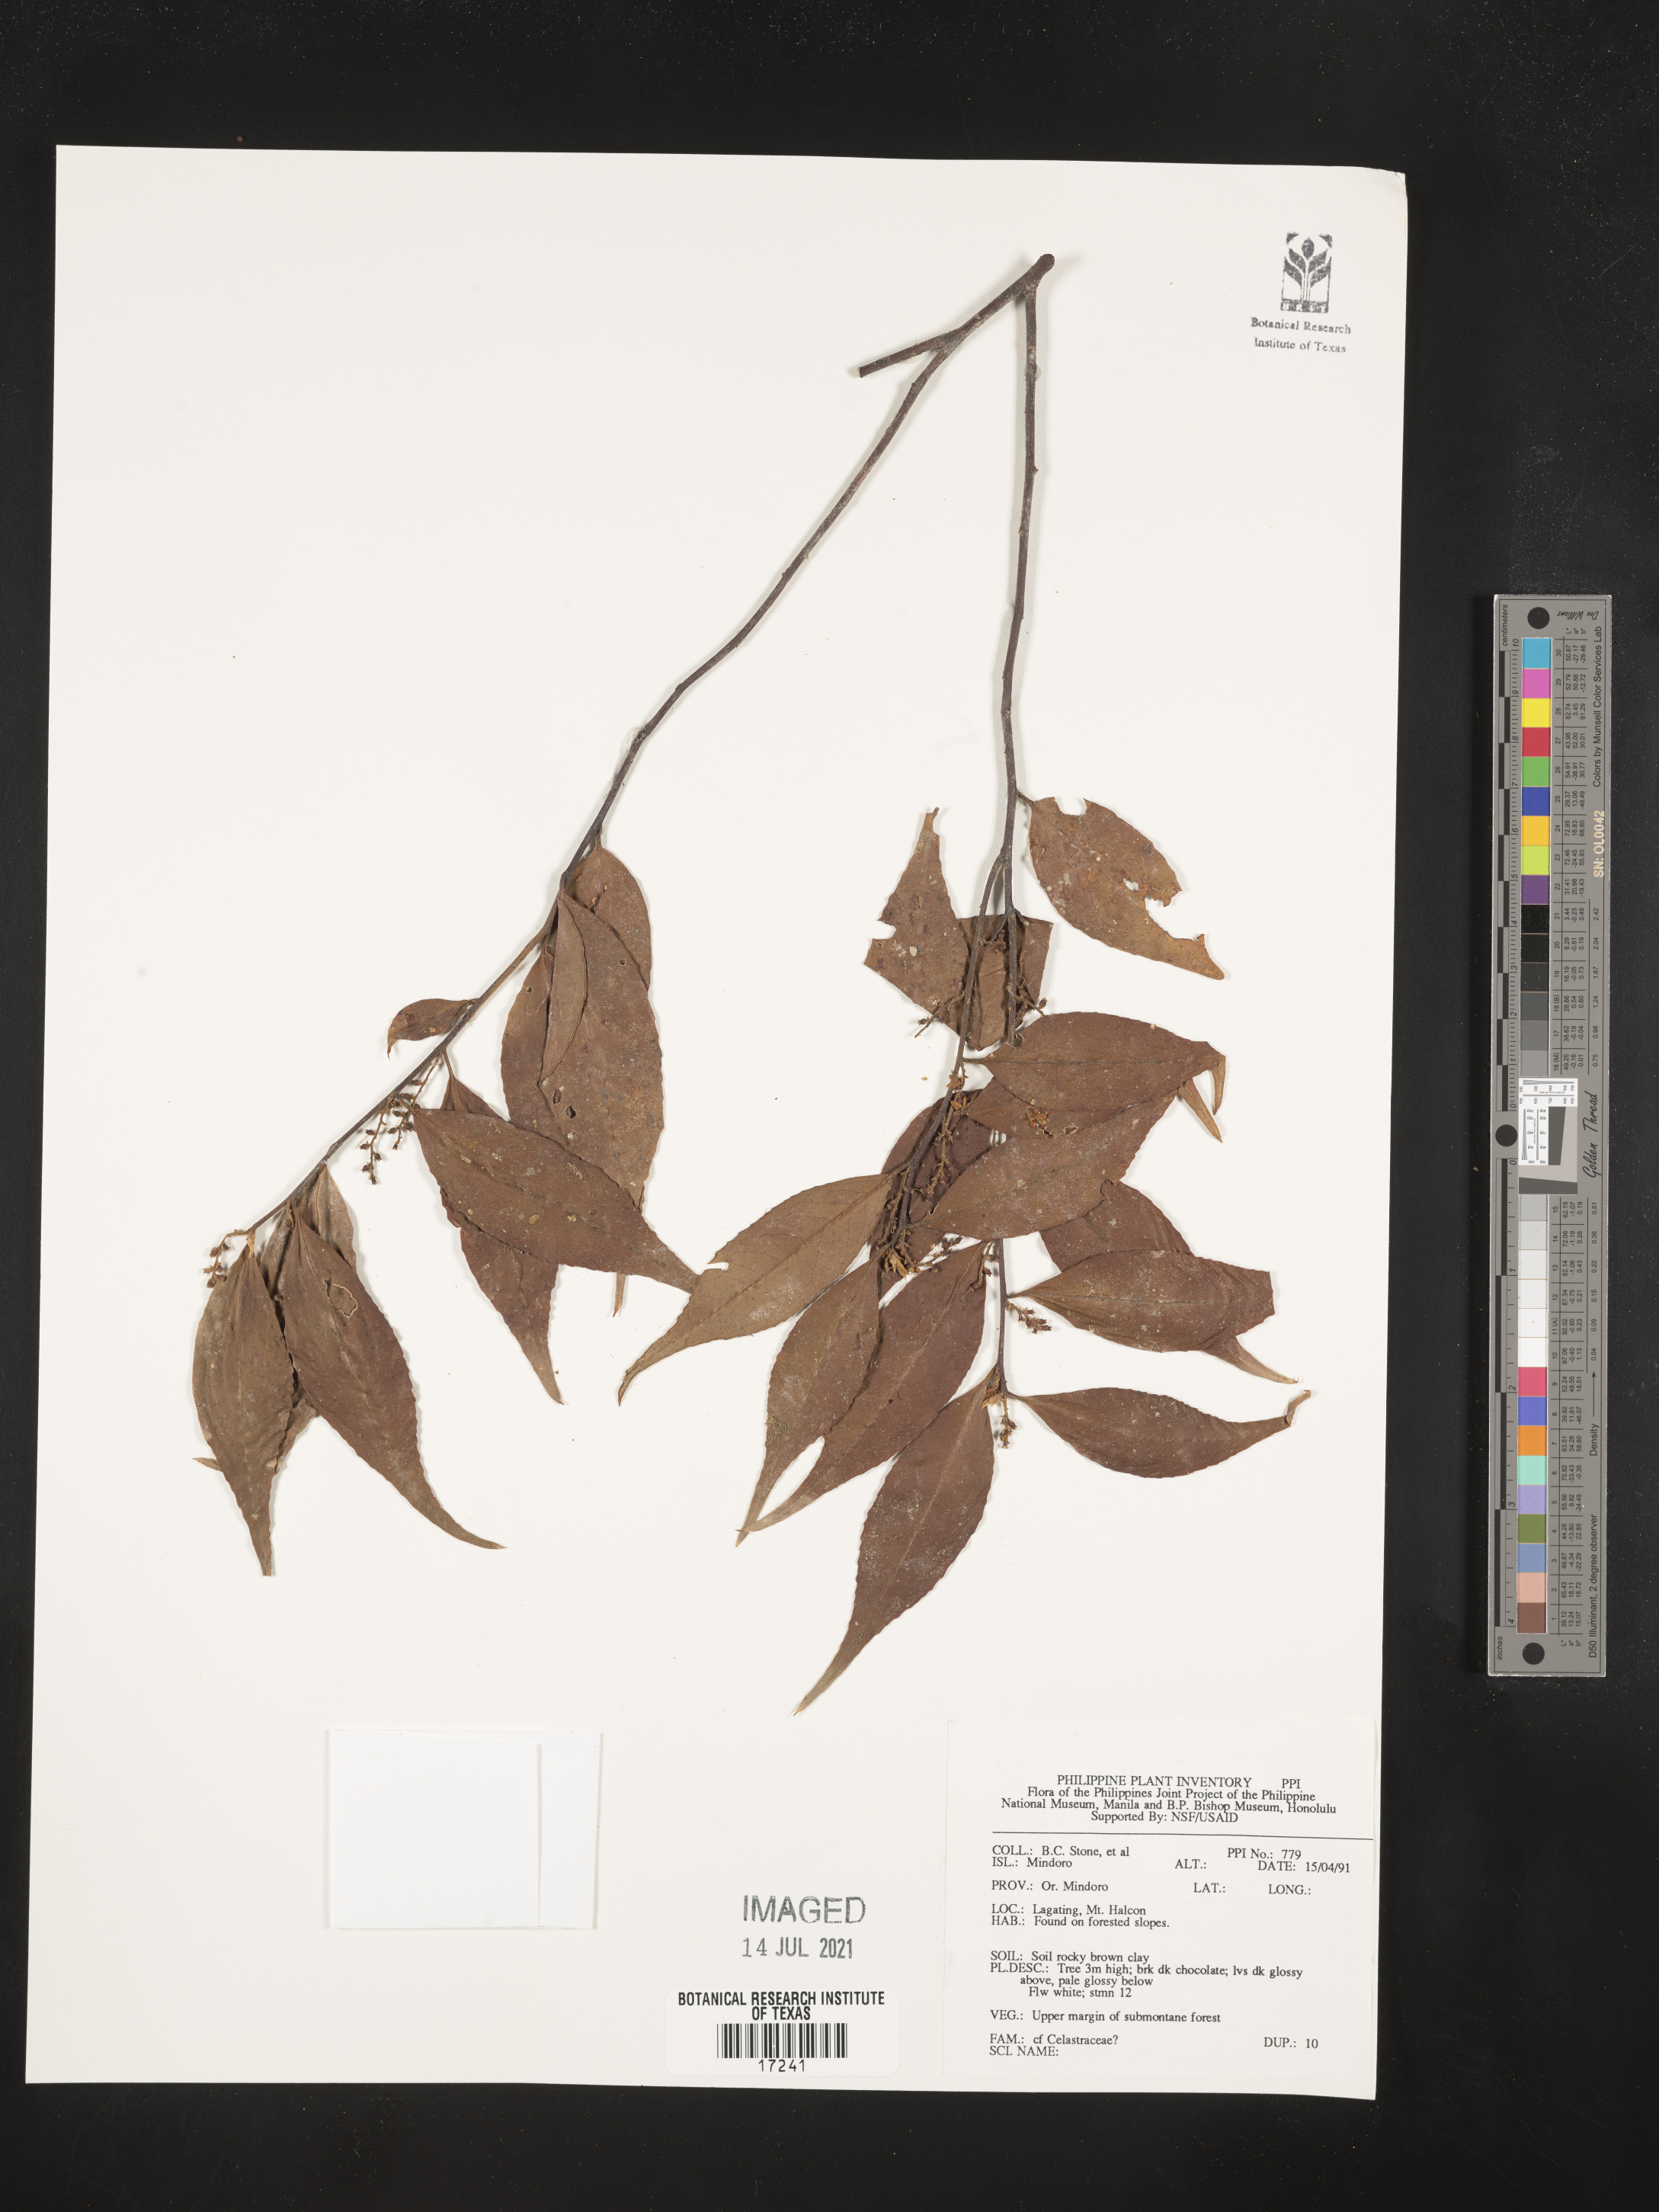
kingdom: Plantae
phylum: Tracheophyta
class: Magnoliopsida
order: Celastrales
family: Celastraceae
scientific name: Celastraceae
